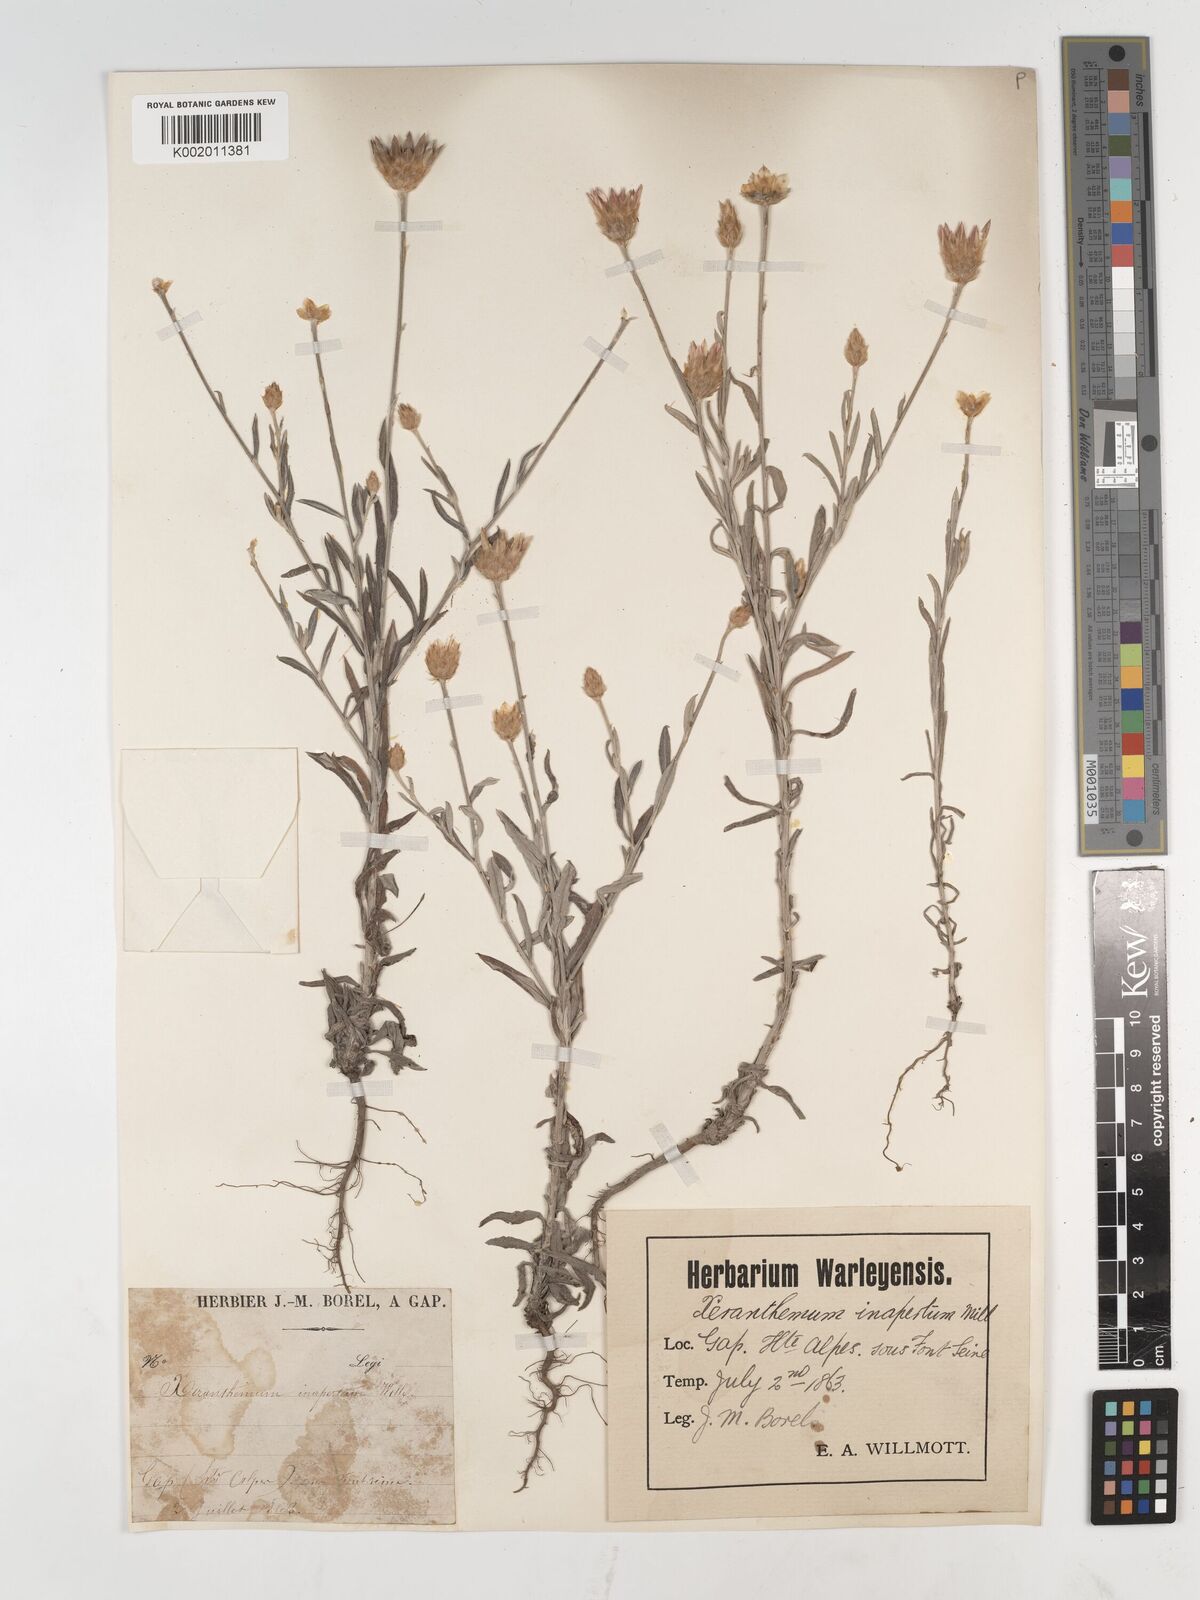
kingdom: Plantae
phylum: Tracheophyta
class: Magnoliopsida
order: Asterales
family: Asteraceae
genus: Xeranthemum
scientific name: Xeranthemum inapertum
